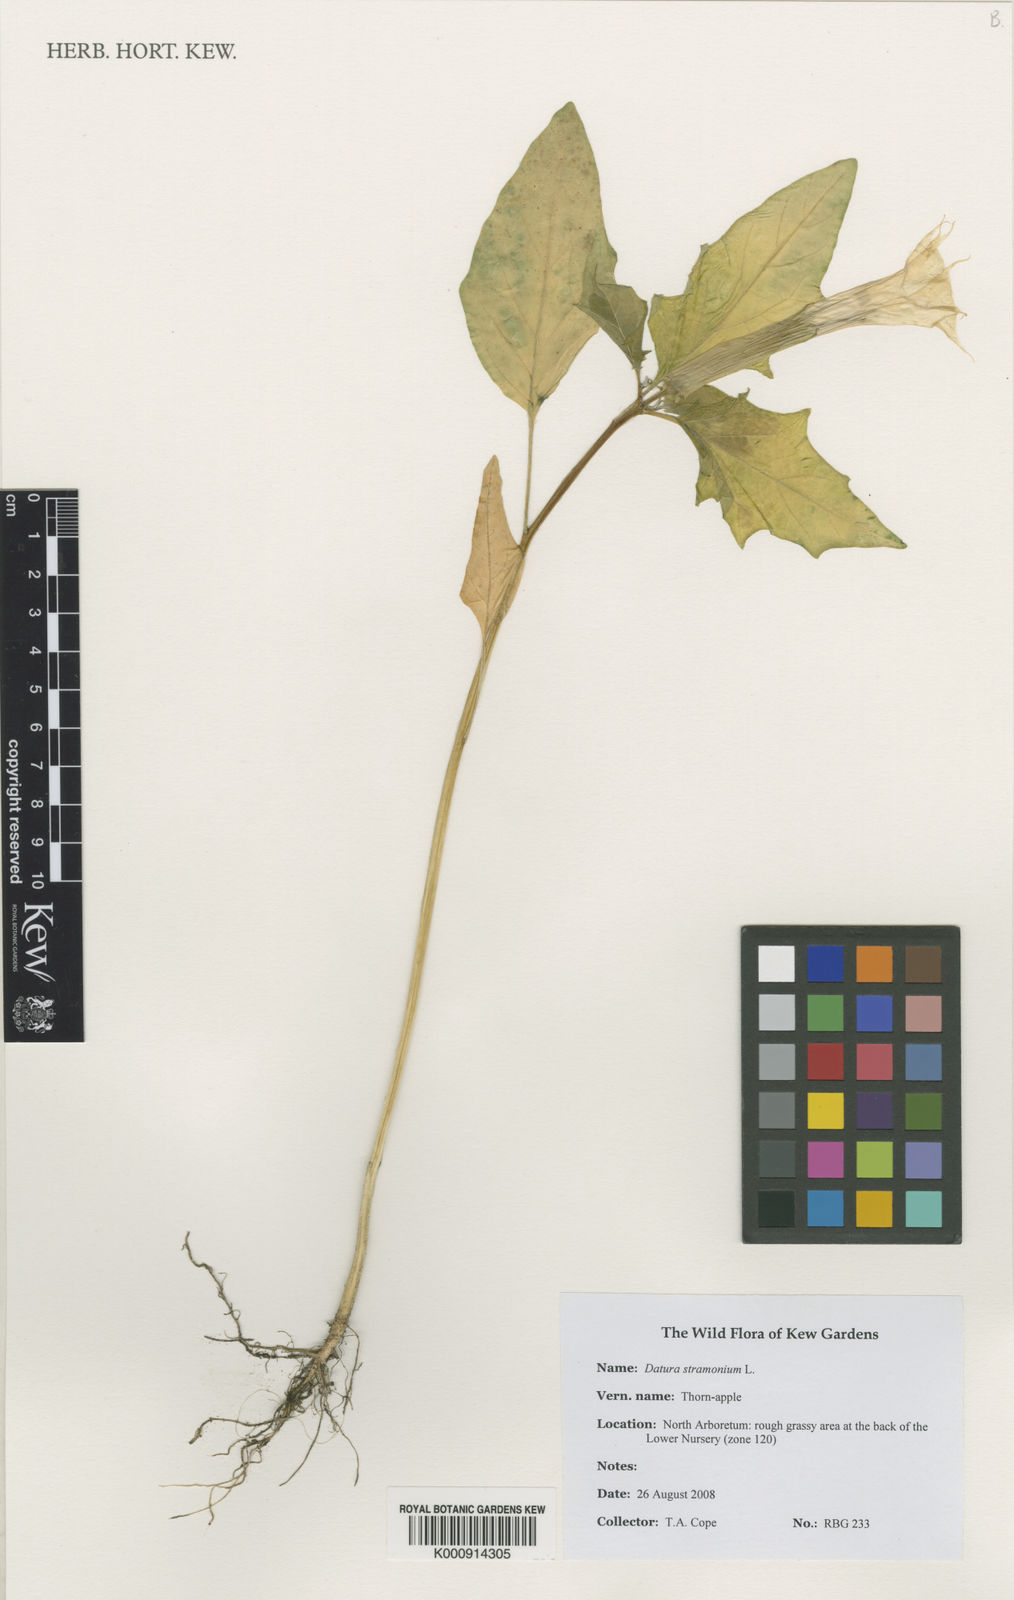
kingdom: Plantae
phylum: Tracheophyta
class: Magnoliopsida
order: Solanales
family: Solanaceae
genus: Datura
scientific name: Datura stramonium
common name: Thorn-apple
